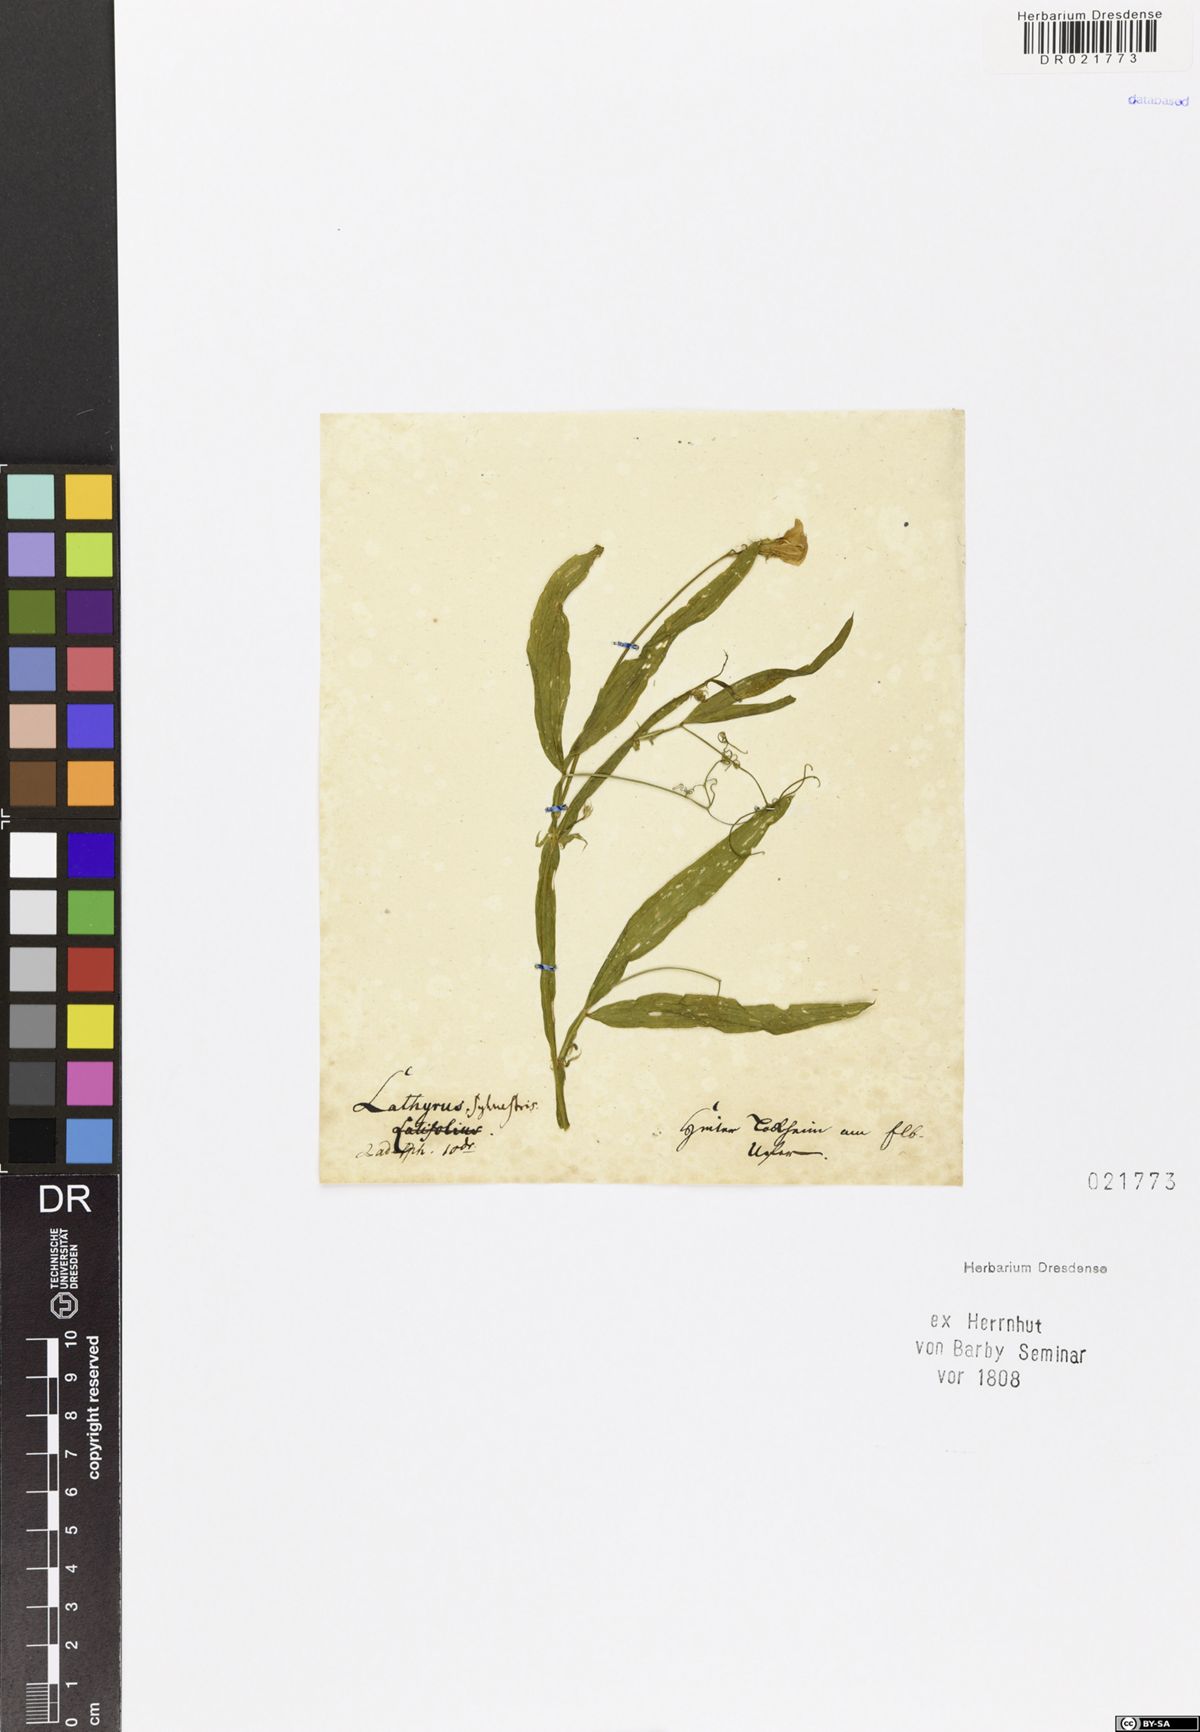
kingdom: Plantae
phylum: Tracheophyta
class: Magnoliopsida
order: Fabales
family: Fabaceae
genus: Lathyrus
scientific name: Lathyrus sylvestris
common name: Flat pea
